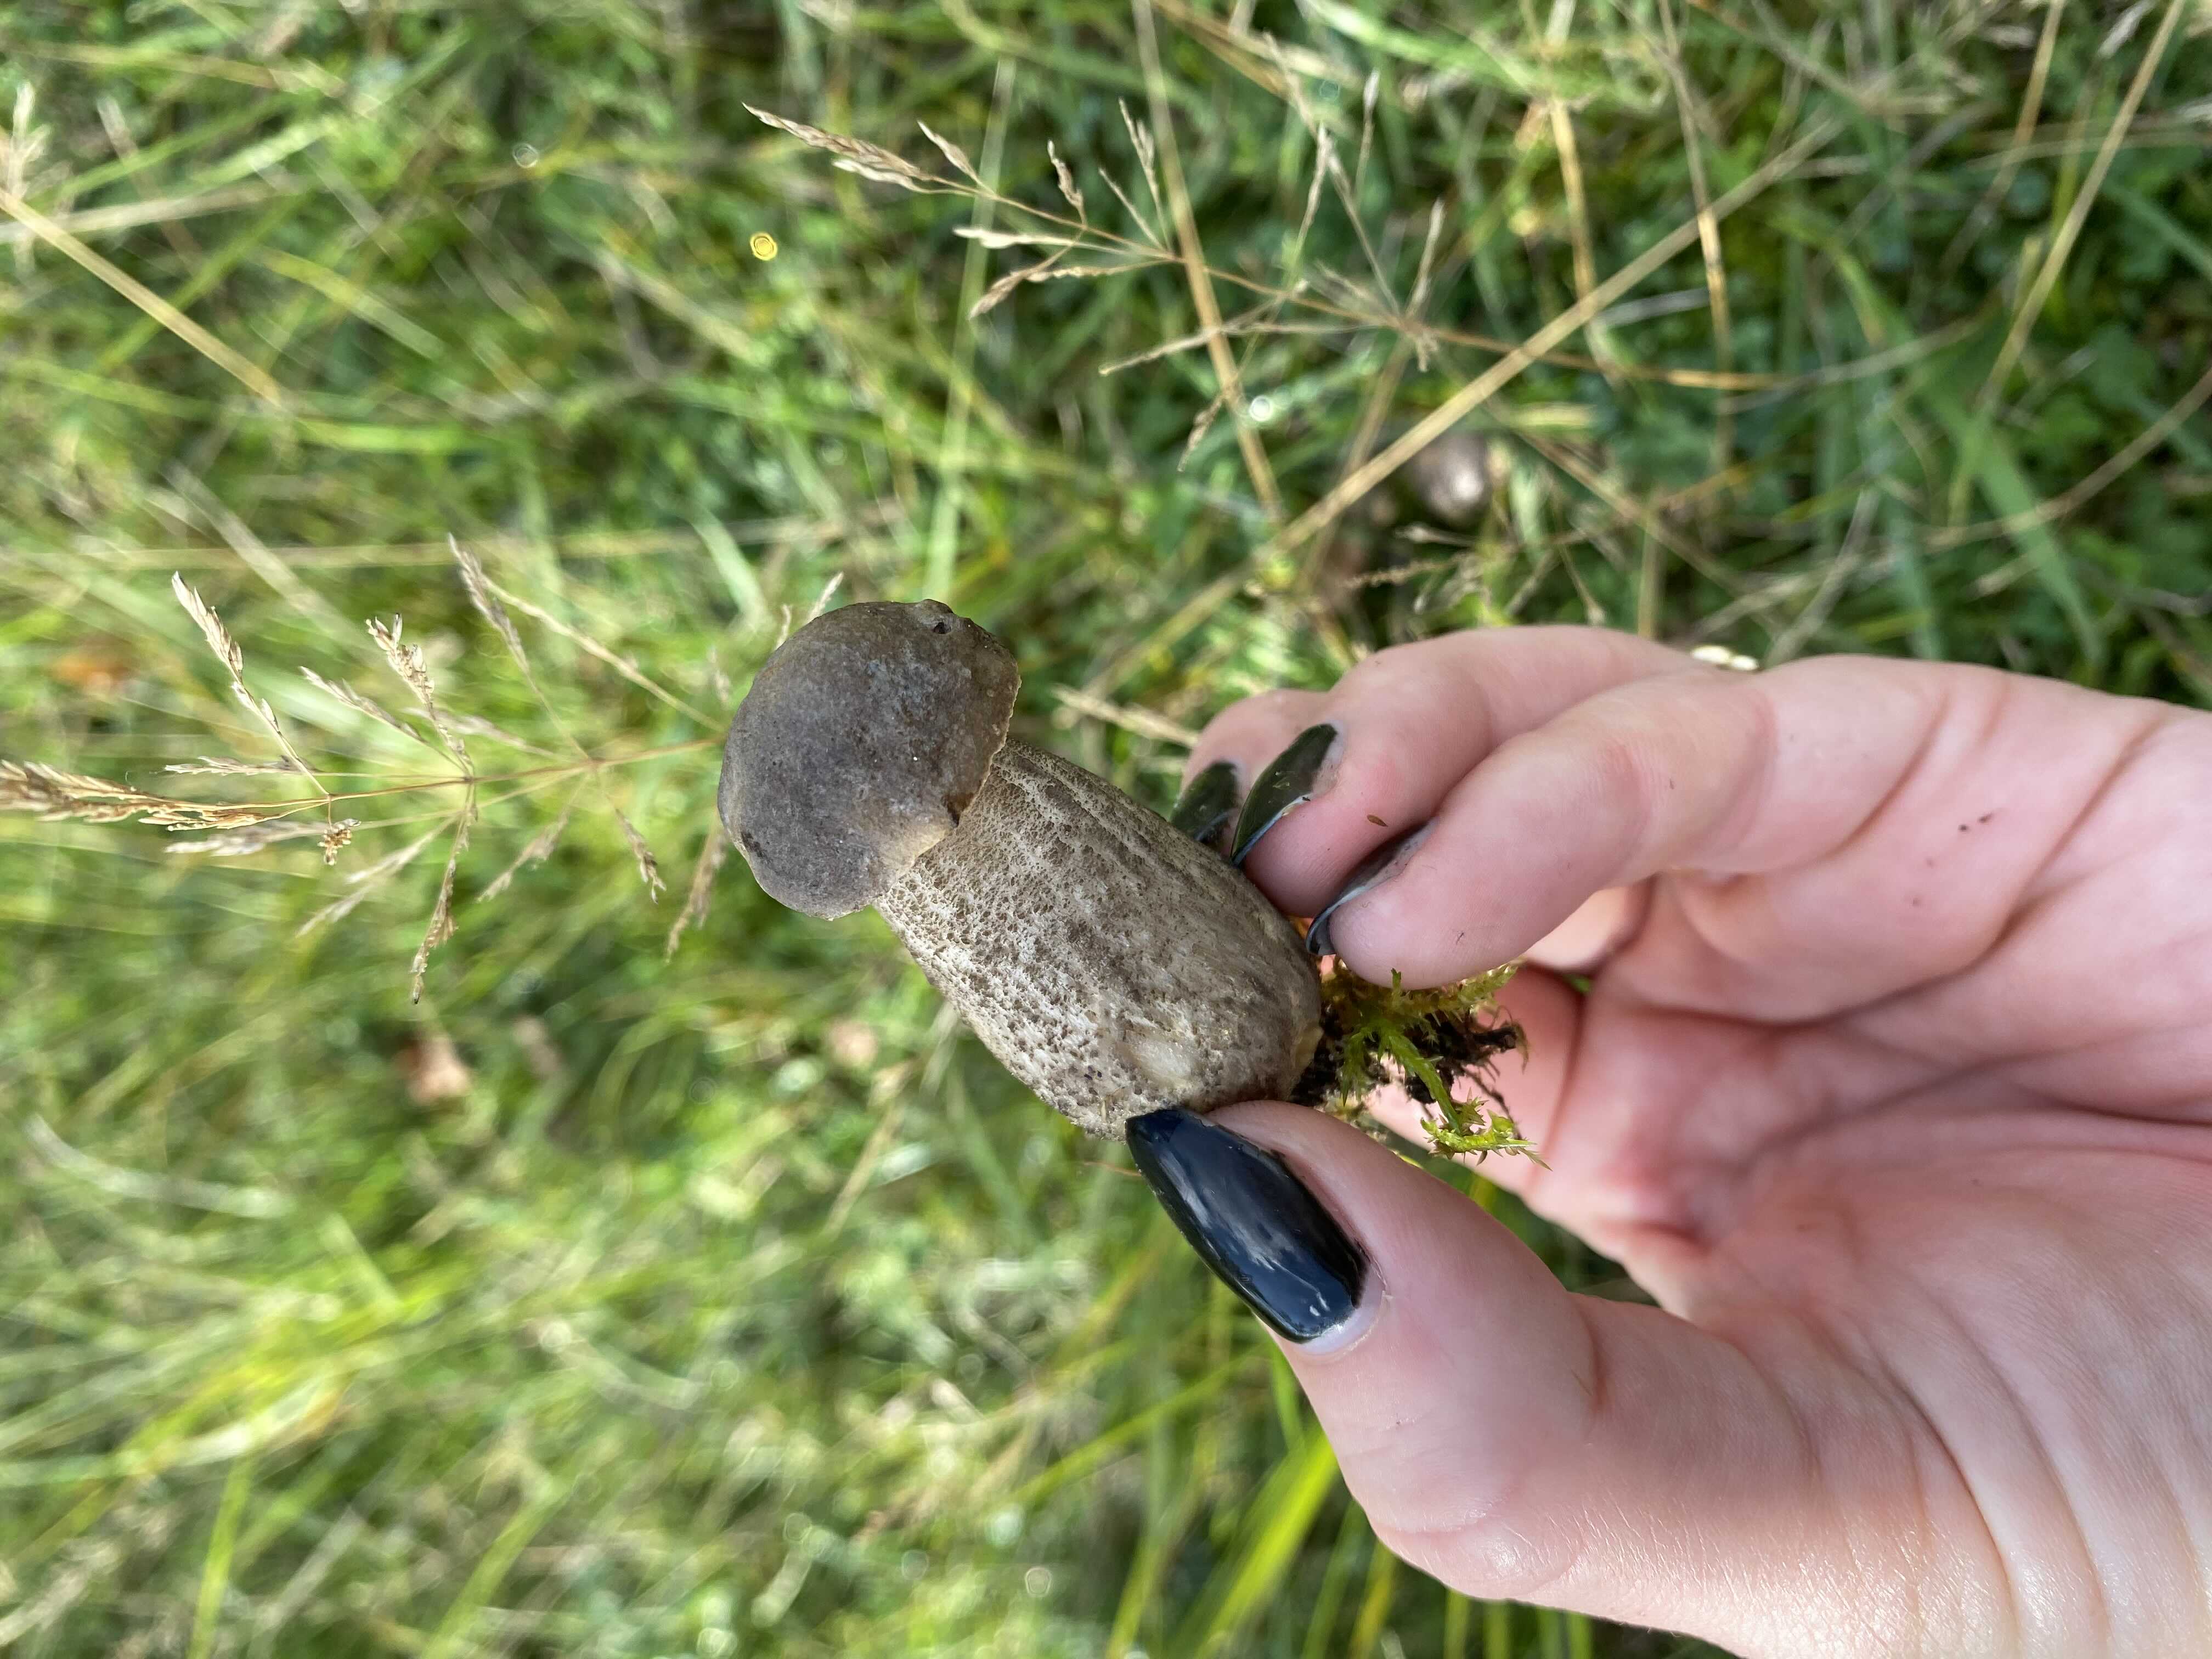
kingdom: Fungi
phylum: Basidiomycota
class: Agaricomycetes
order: Boletales
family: Boletaceae
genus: Leccinum
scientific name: Leccinum scabrum
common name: brun skælrørhat
